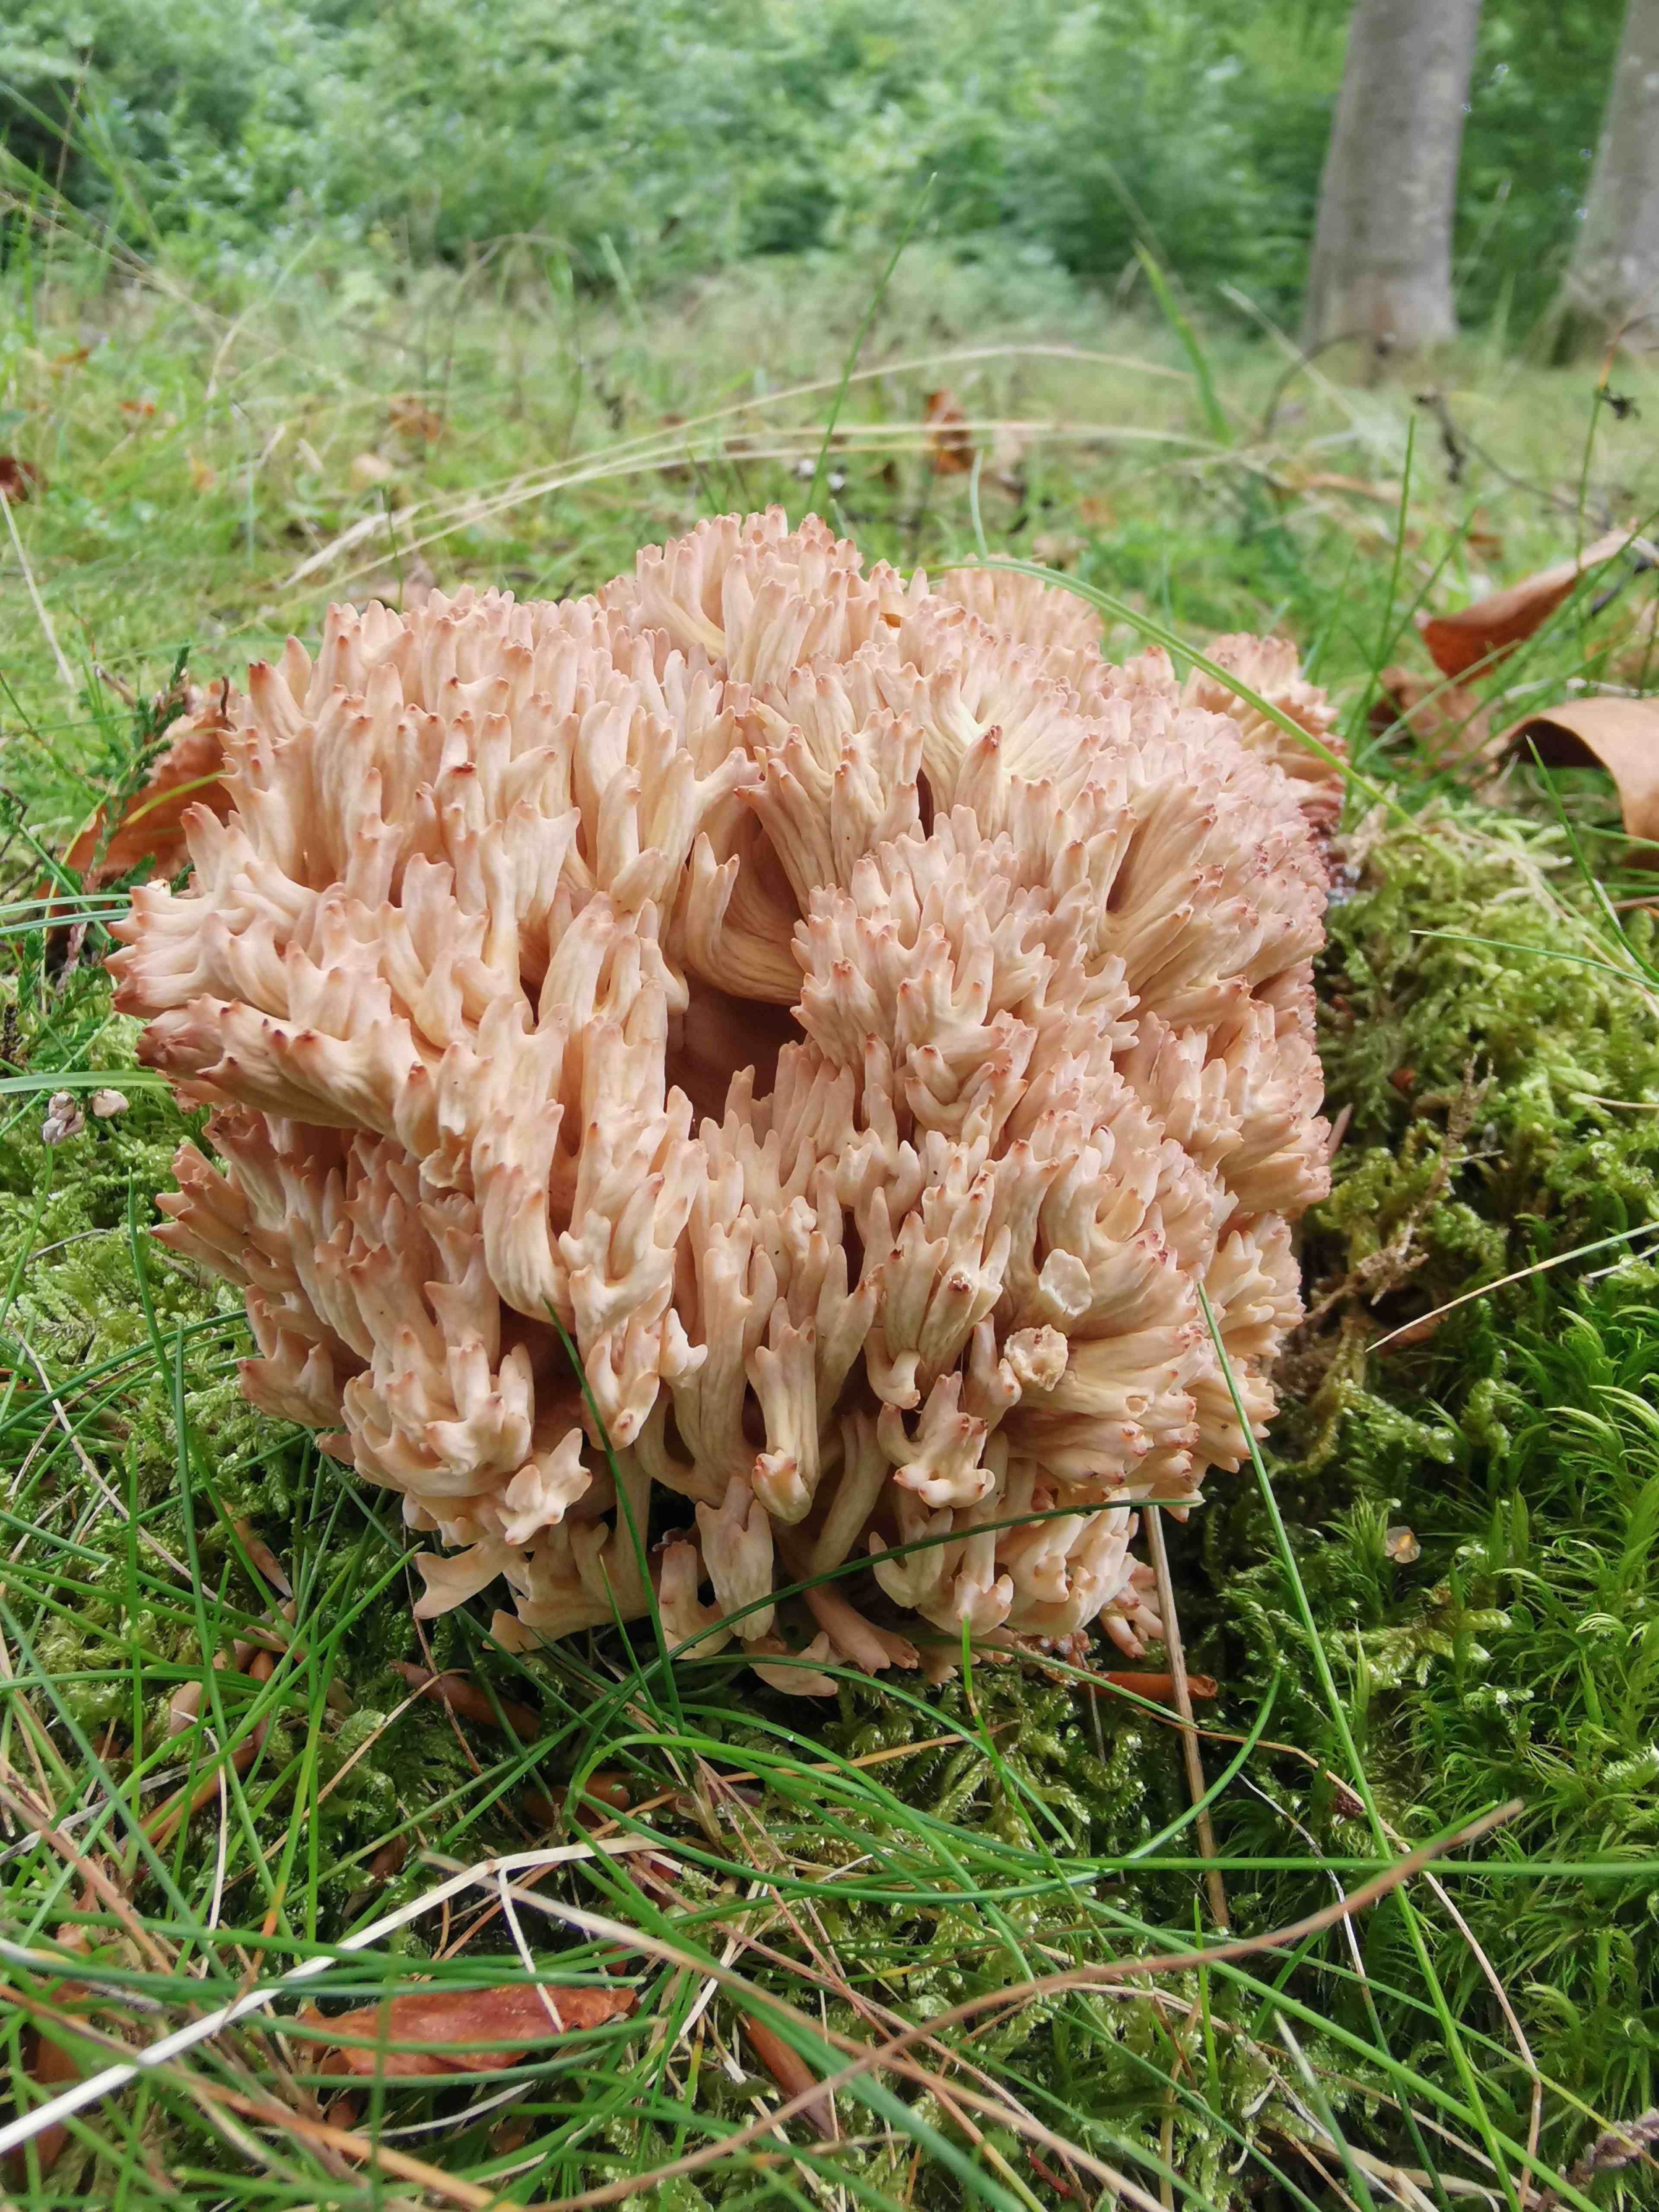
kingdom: Fungi
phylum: Basidiomycota
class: Agaricomycetes
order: Gomphales
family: Gomphaceae
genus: Ramaria
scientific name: Ramaria botrytis
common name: drue-koralsvamp
